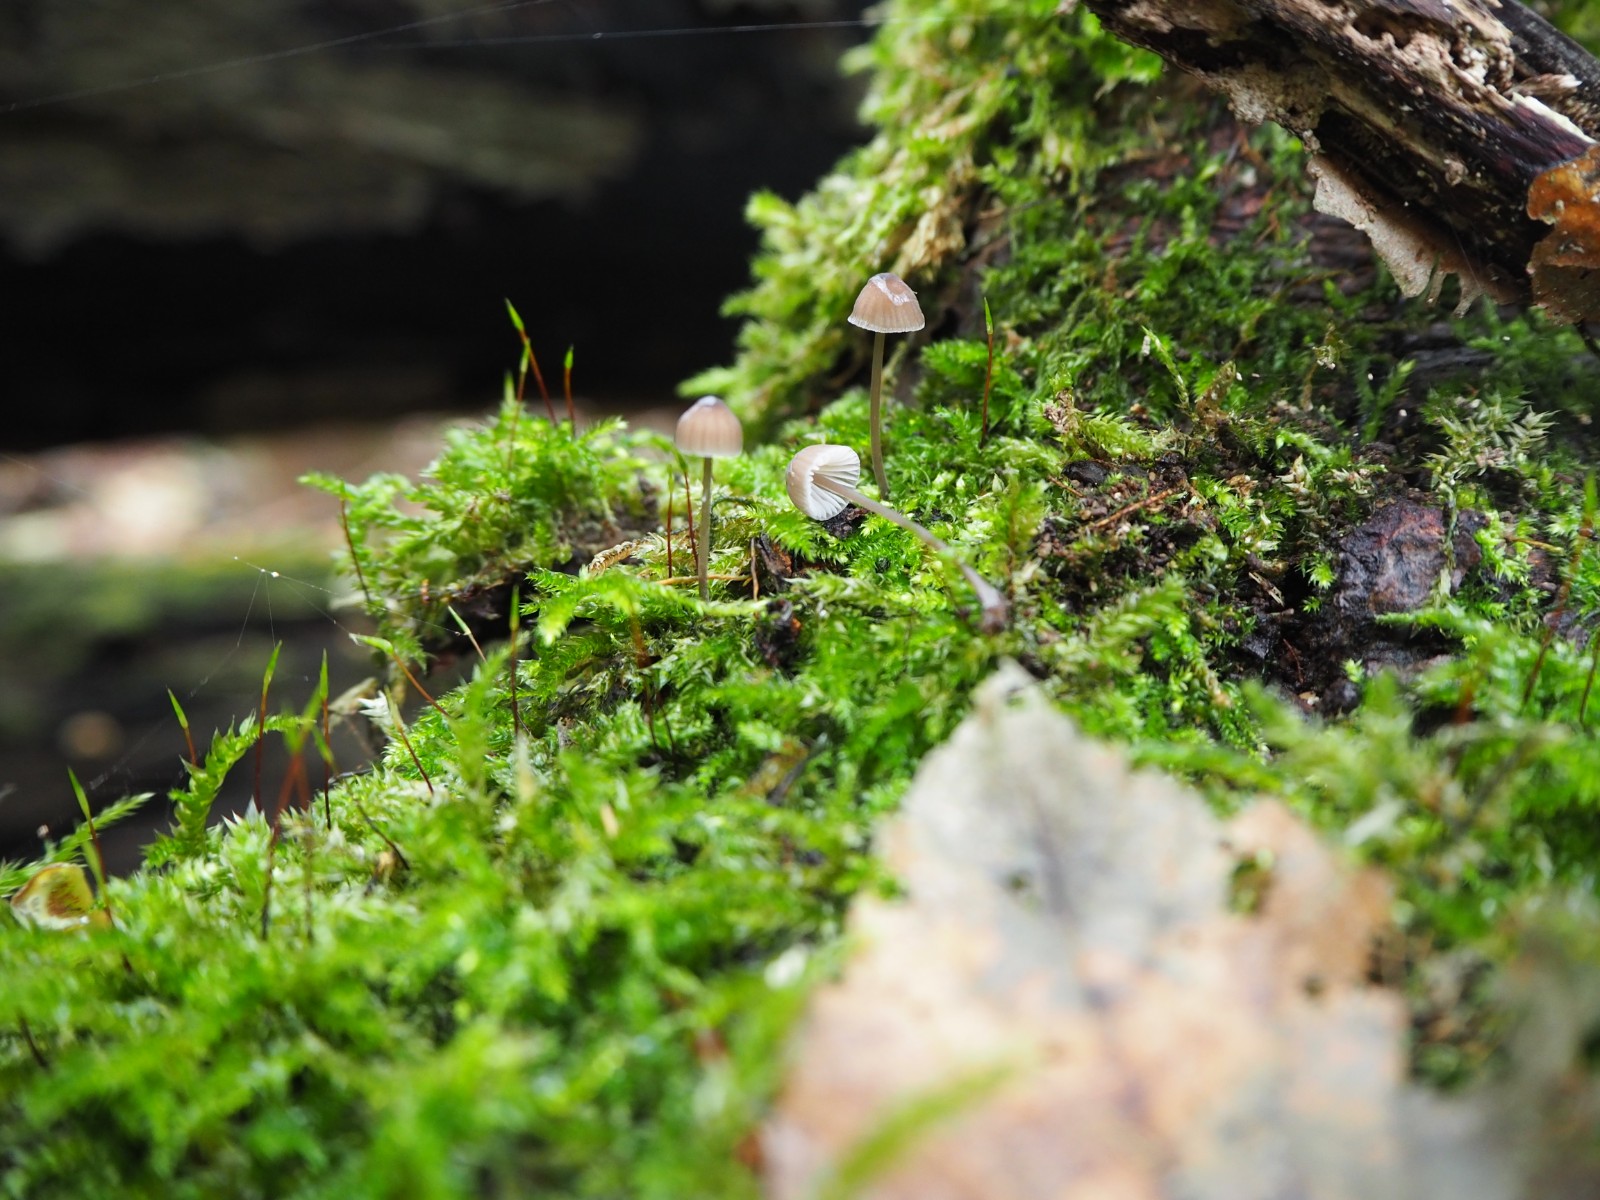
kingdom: Fungi
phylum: Basidiomycota
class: Agaricomycetes
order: Agaricales
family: Mycenaceae
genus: Mycena
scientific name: Mycena erubescens
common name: galde-huesvamp
